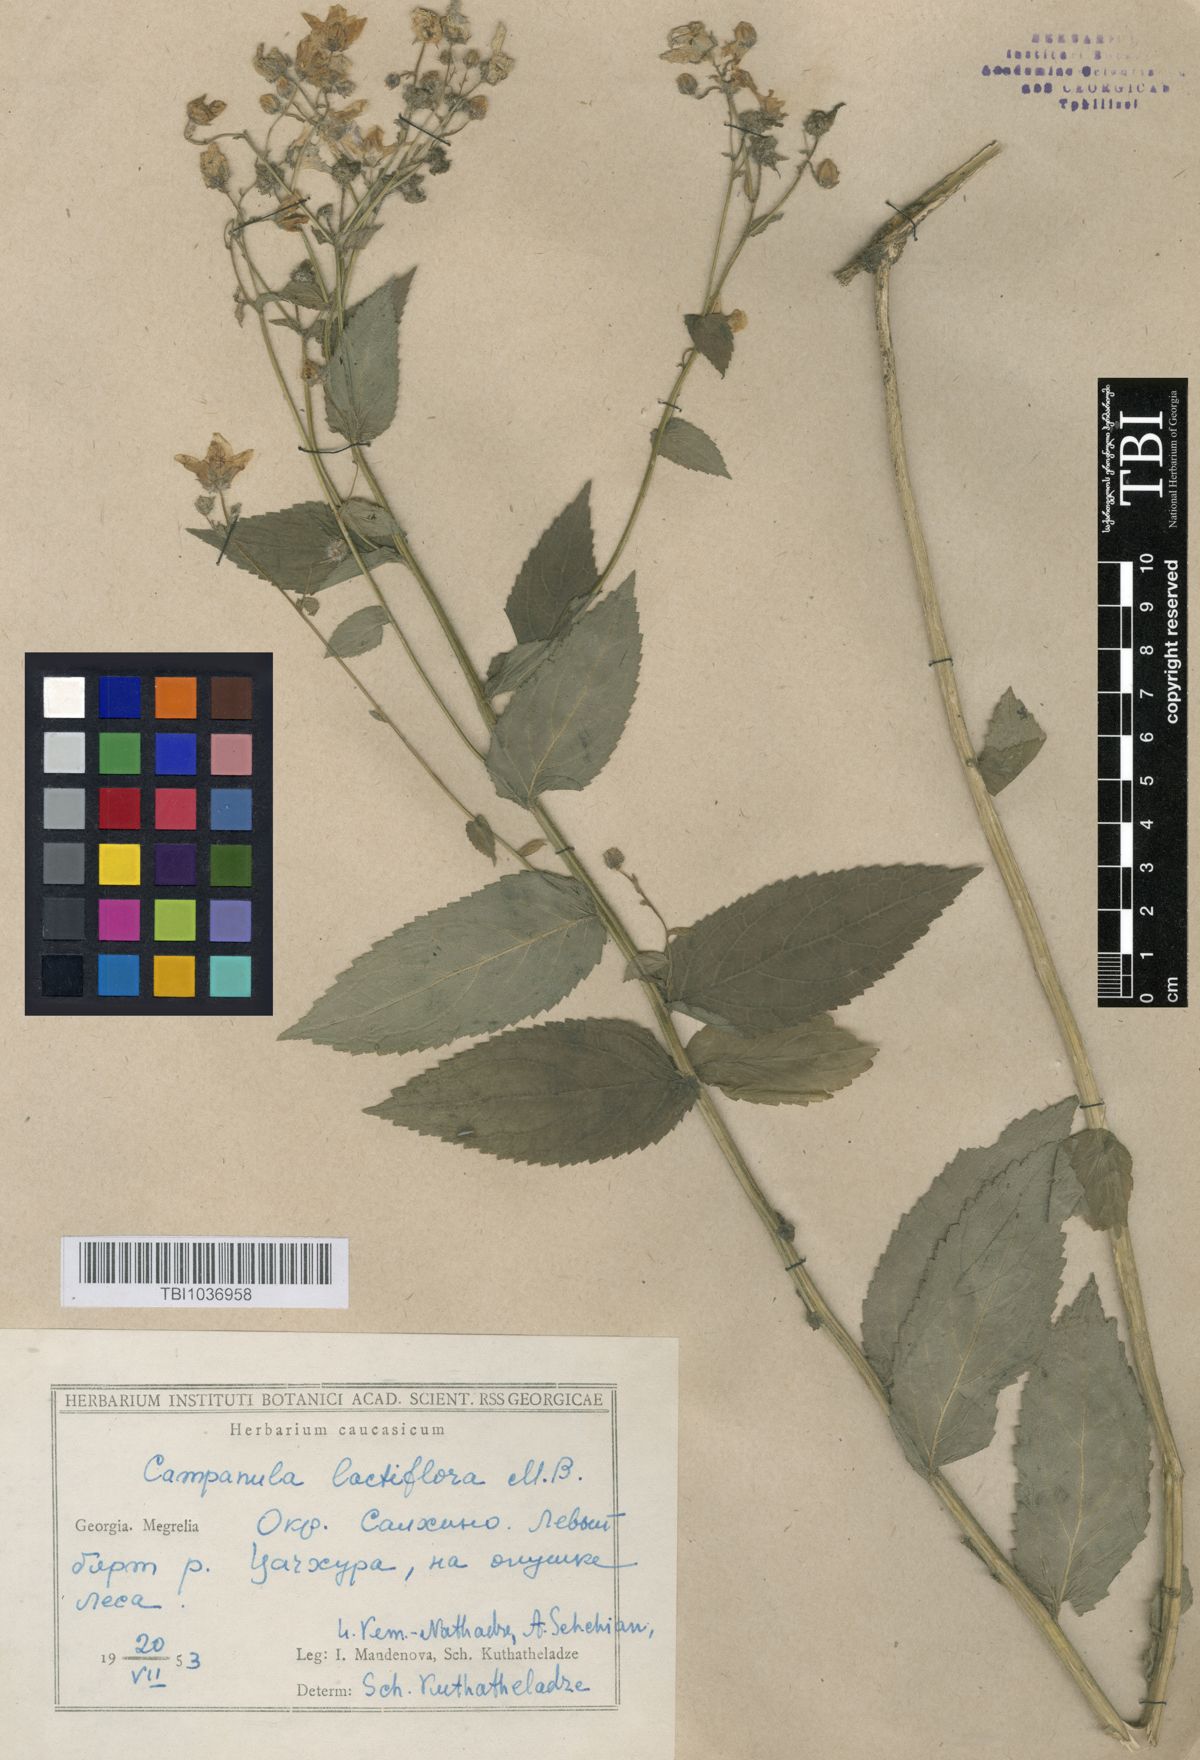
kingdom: Plantae
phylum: Tracheophyta
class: Magnoliopsida
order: Asterales
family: Campanulaceae
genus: Campanula
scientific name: Campanula lactiflora
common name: Milky bellflower
